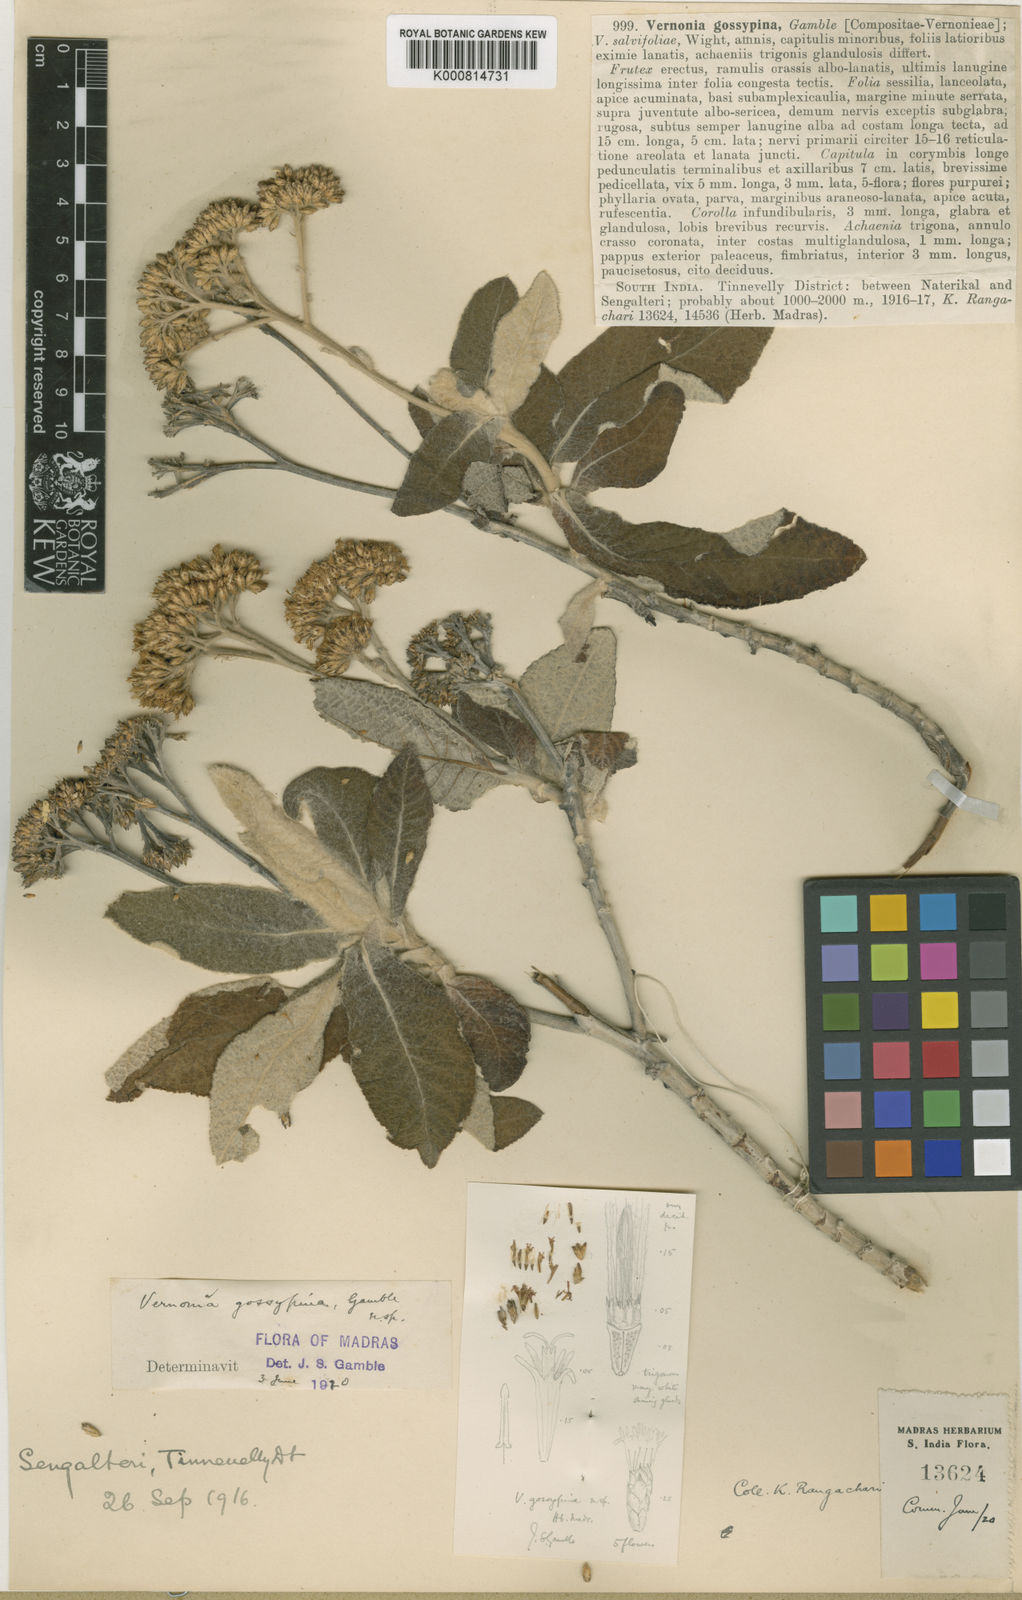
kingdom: Plantae
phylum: Tracheophyta
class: Magnoliopsida
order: Asterales
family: Asteraceae
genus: Uniyala
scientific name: Uniyala gossypina
